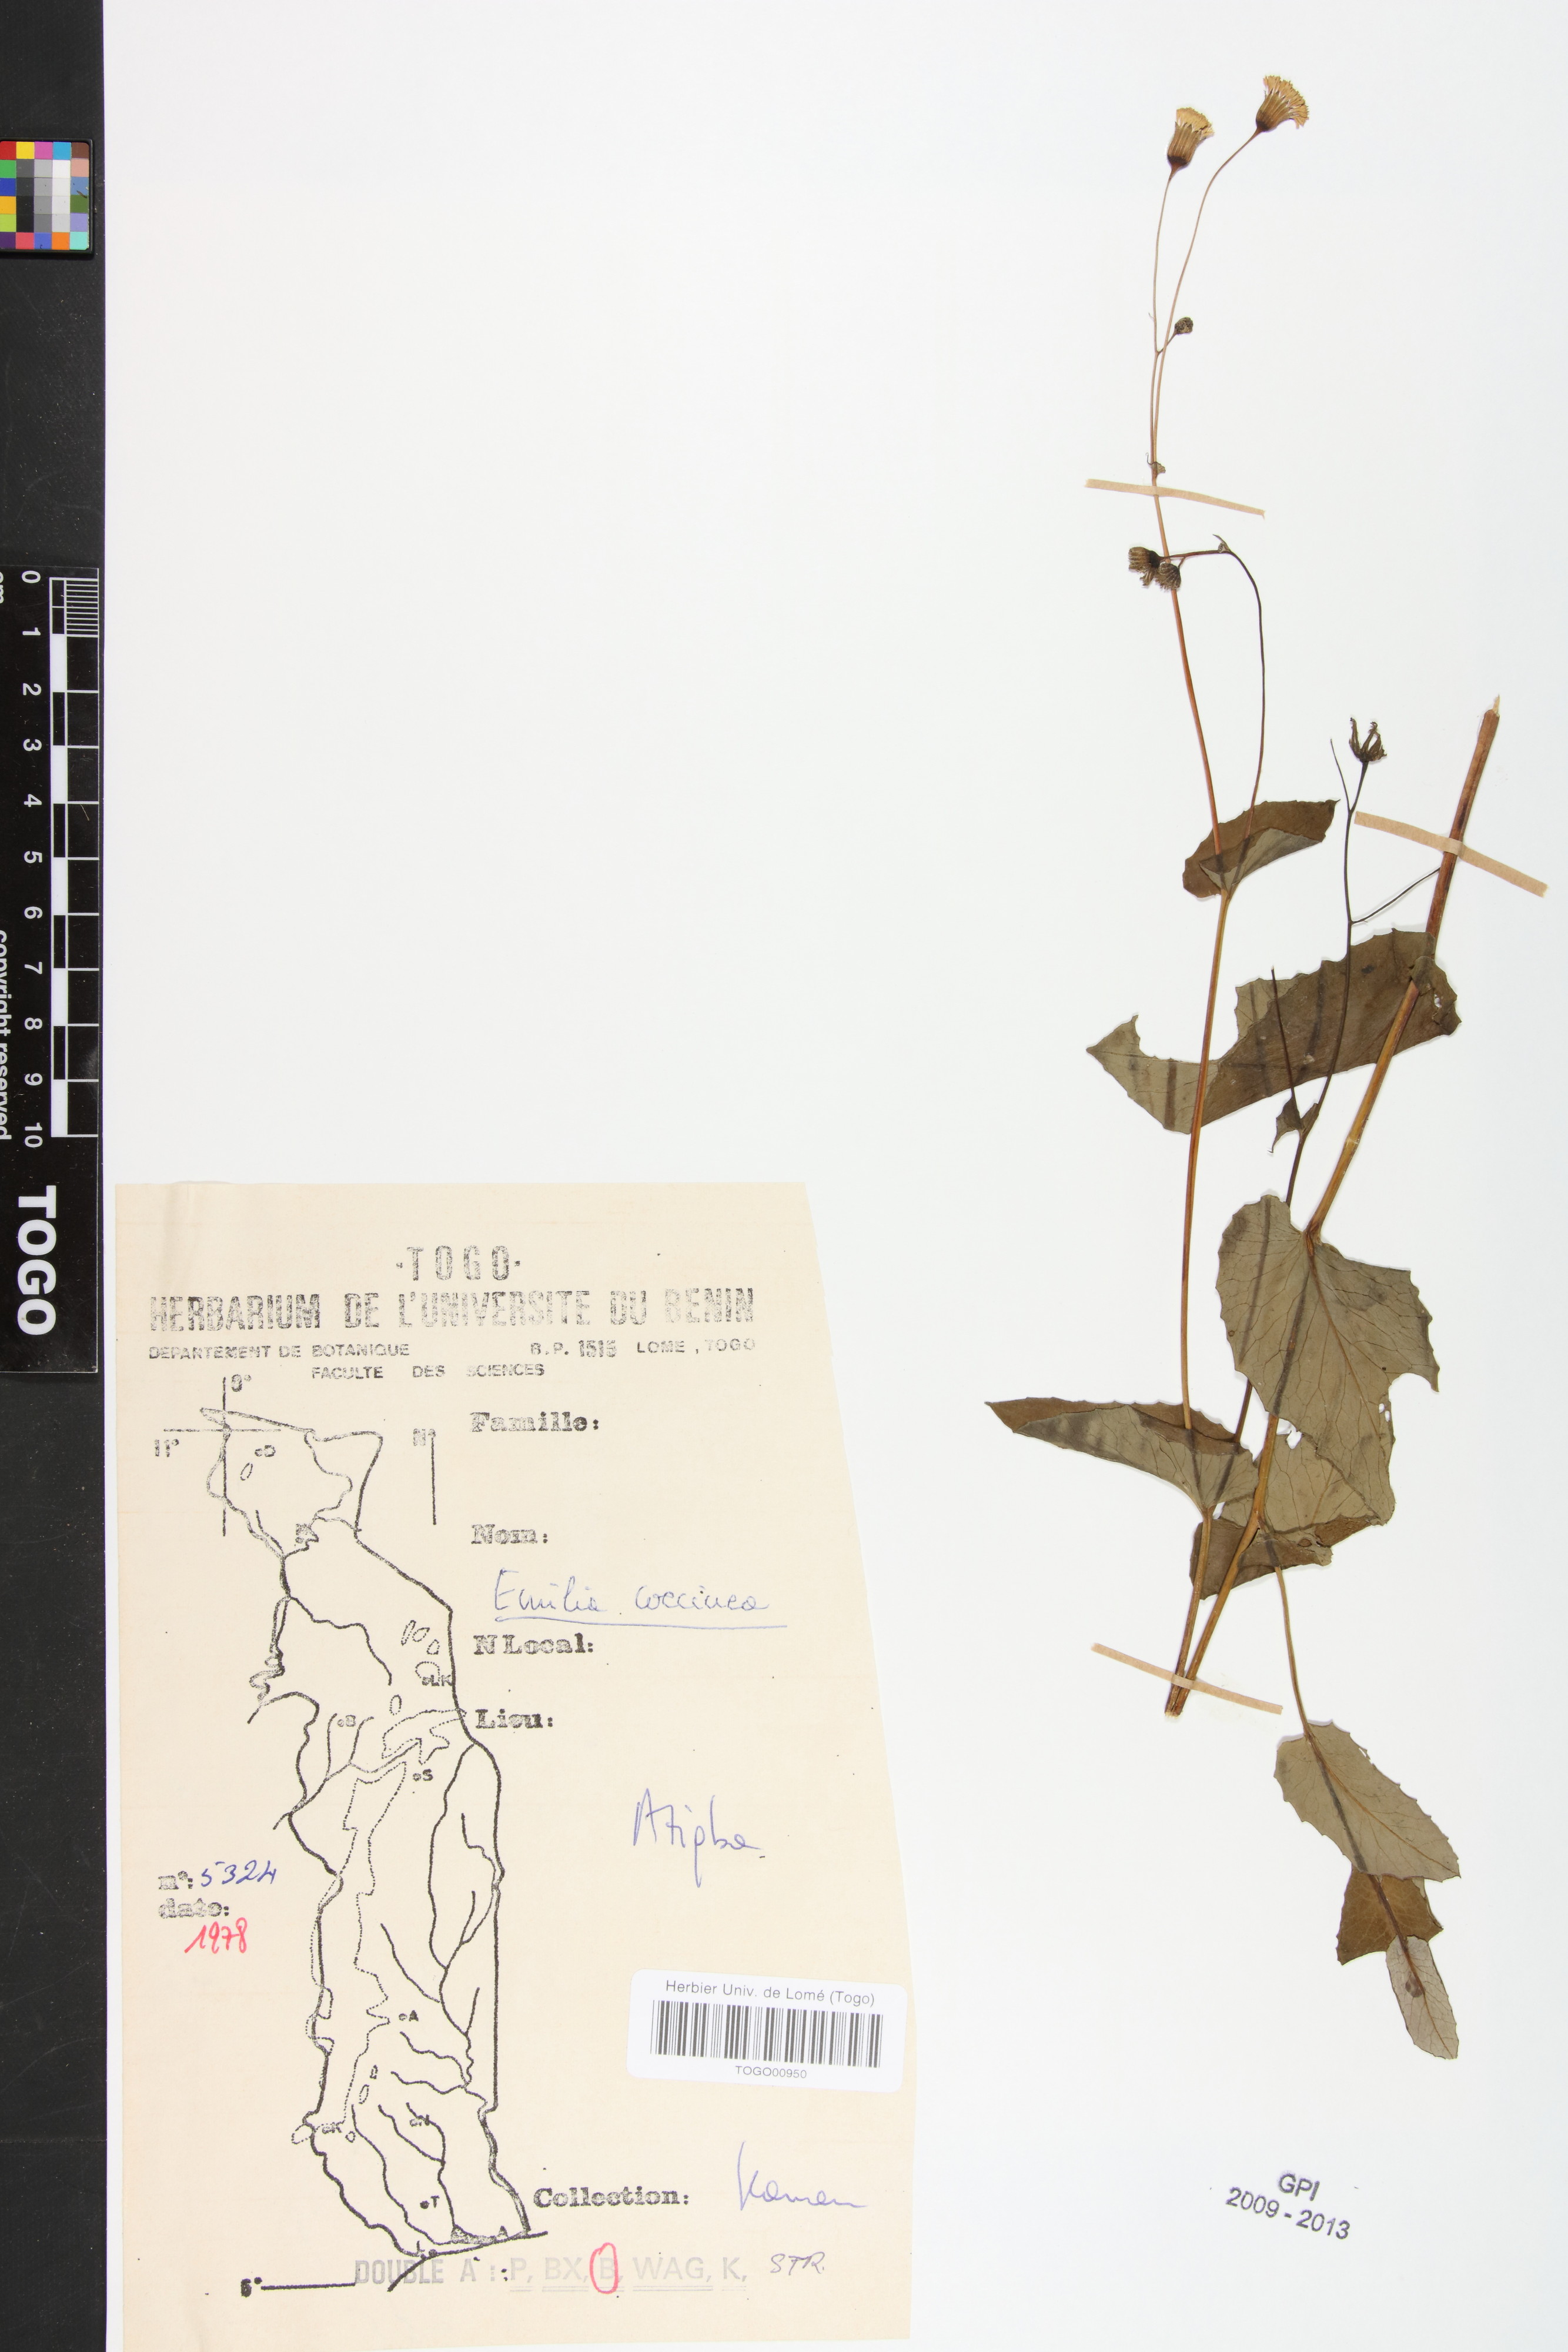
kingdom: Plantae
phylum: Tracheophyta
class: Magnoliopsida
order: Asterales
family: Asteraceae
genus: Emilia
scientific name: Emilia coccinea
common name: Scarlet tasselflower
